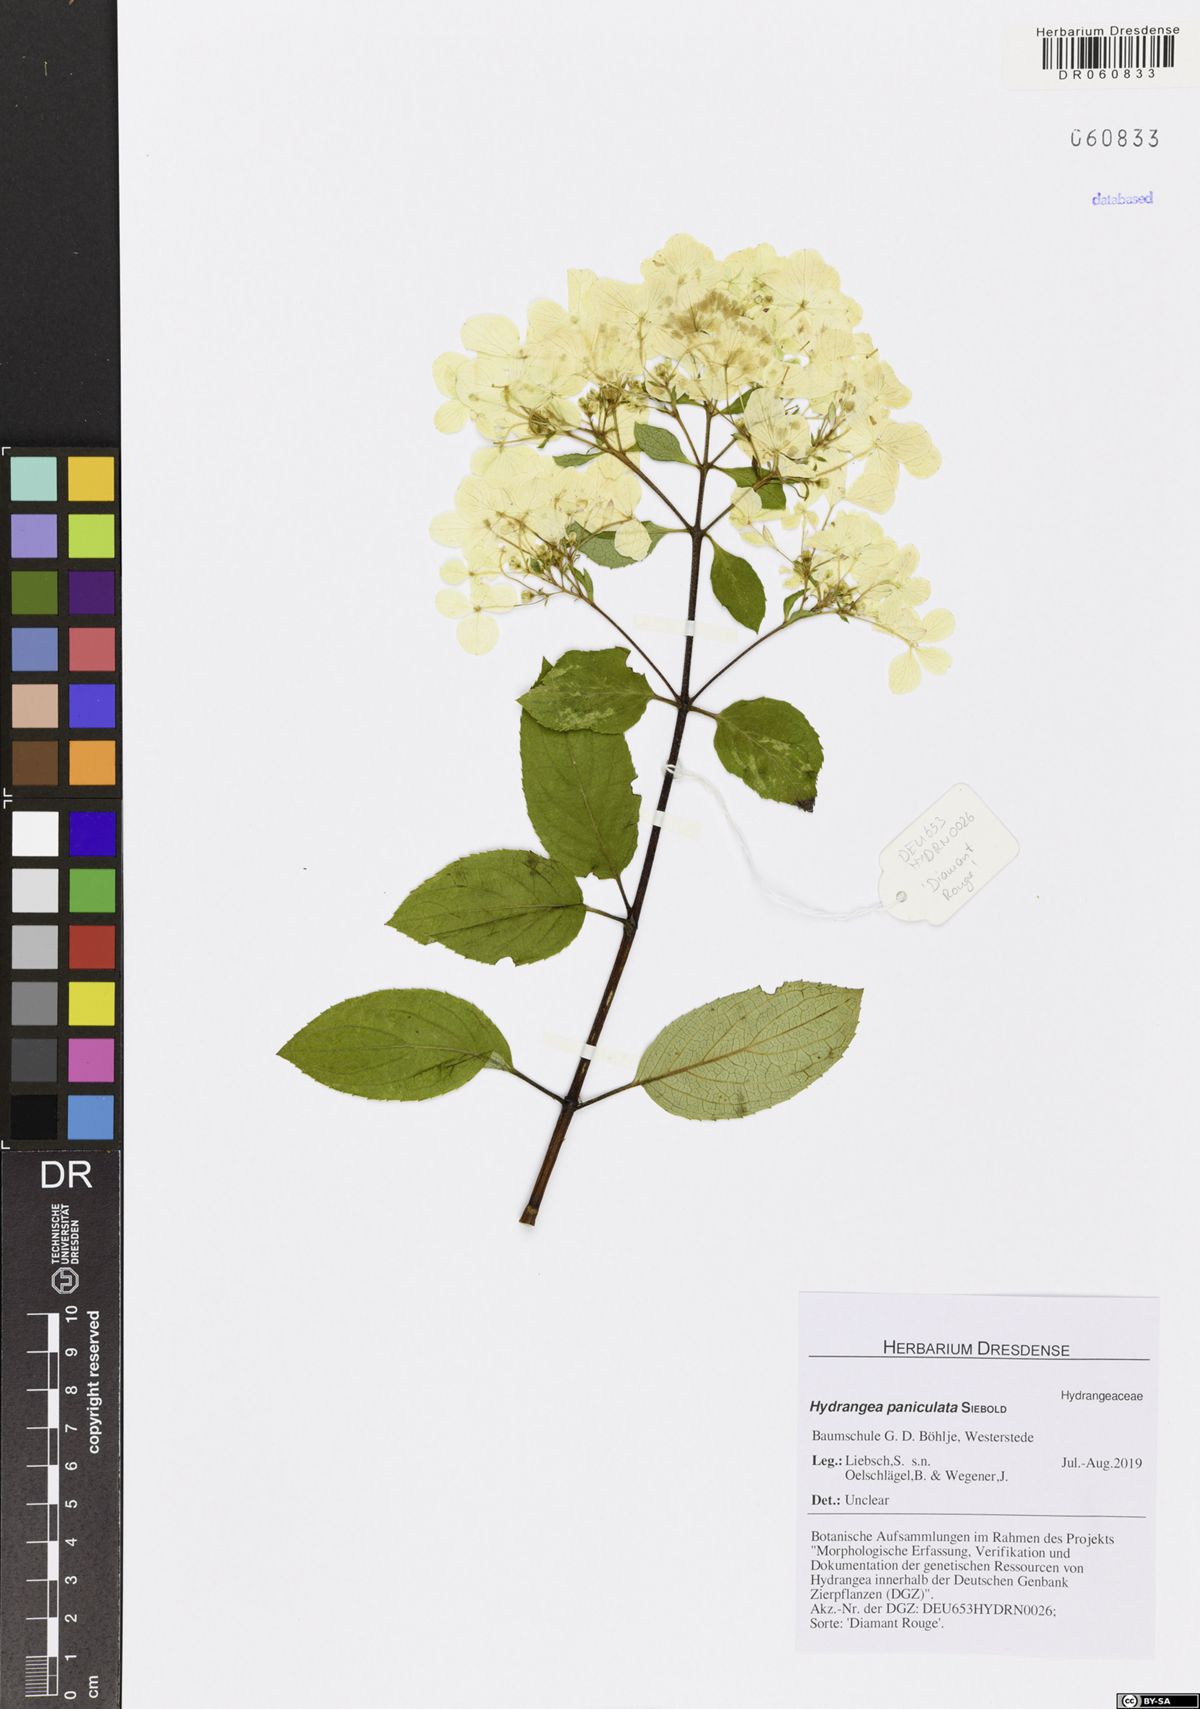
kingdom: Plantae
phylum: Tracheophyta
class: Magnoliopsida
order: Cornales
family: Hydrangeaceae
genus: Hydrangea
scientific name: Hydrangea paniculata
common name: Panicled hydrangea
